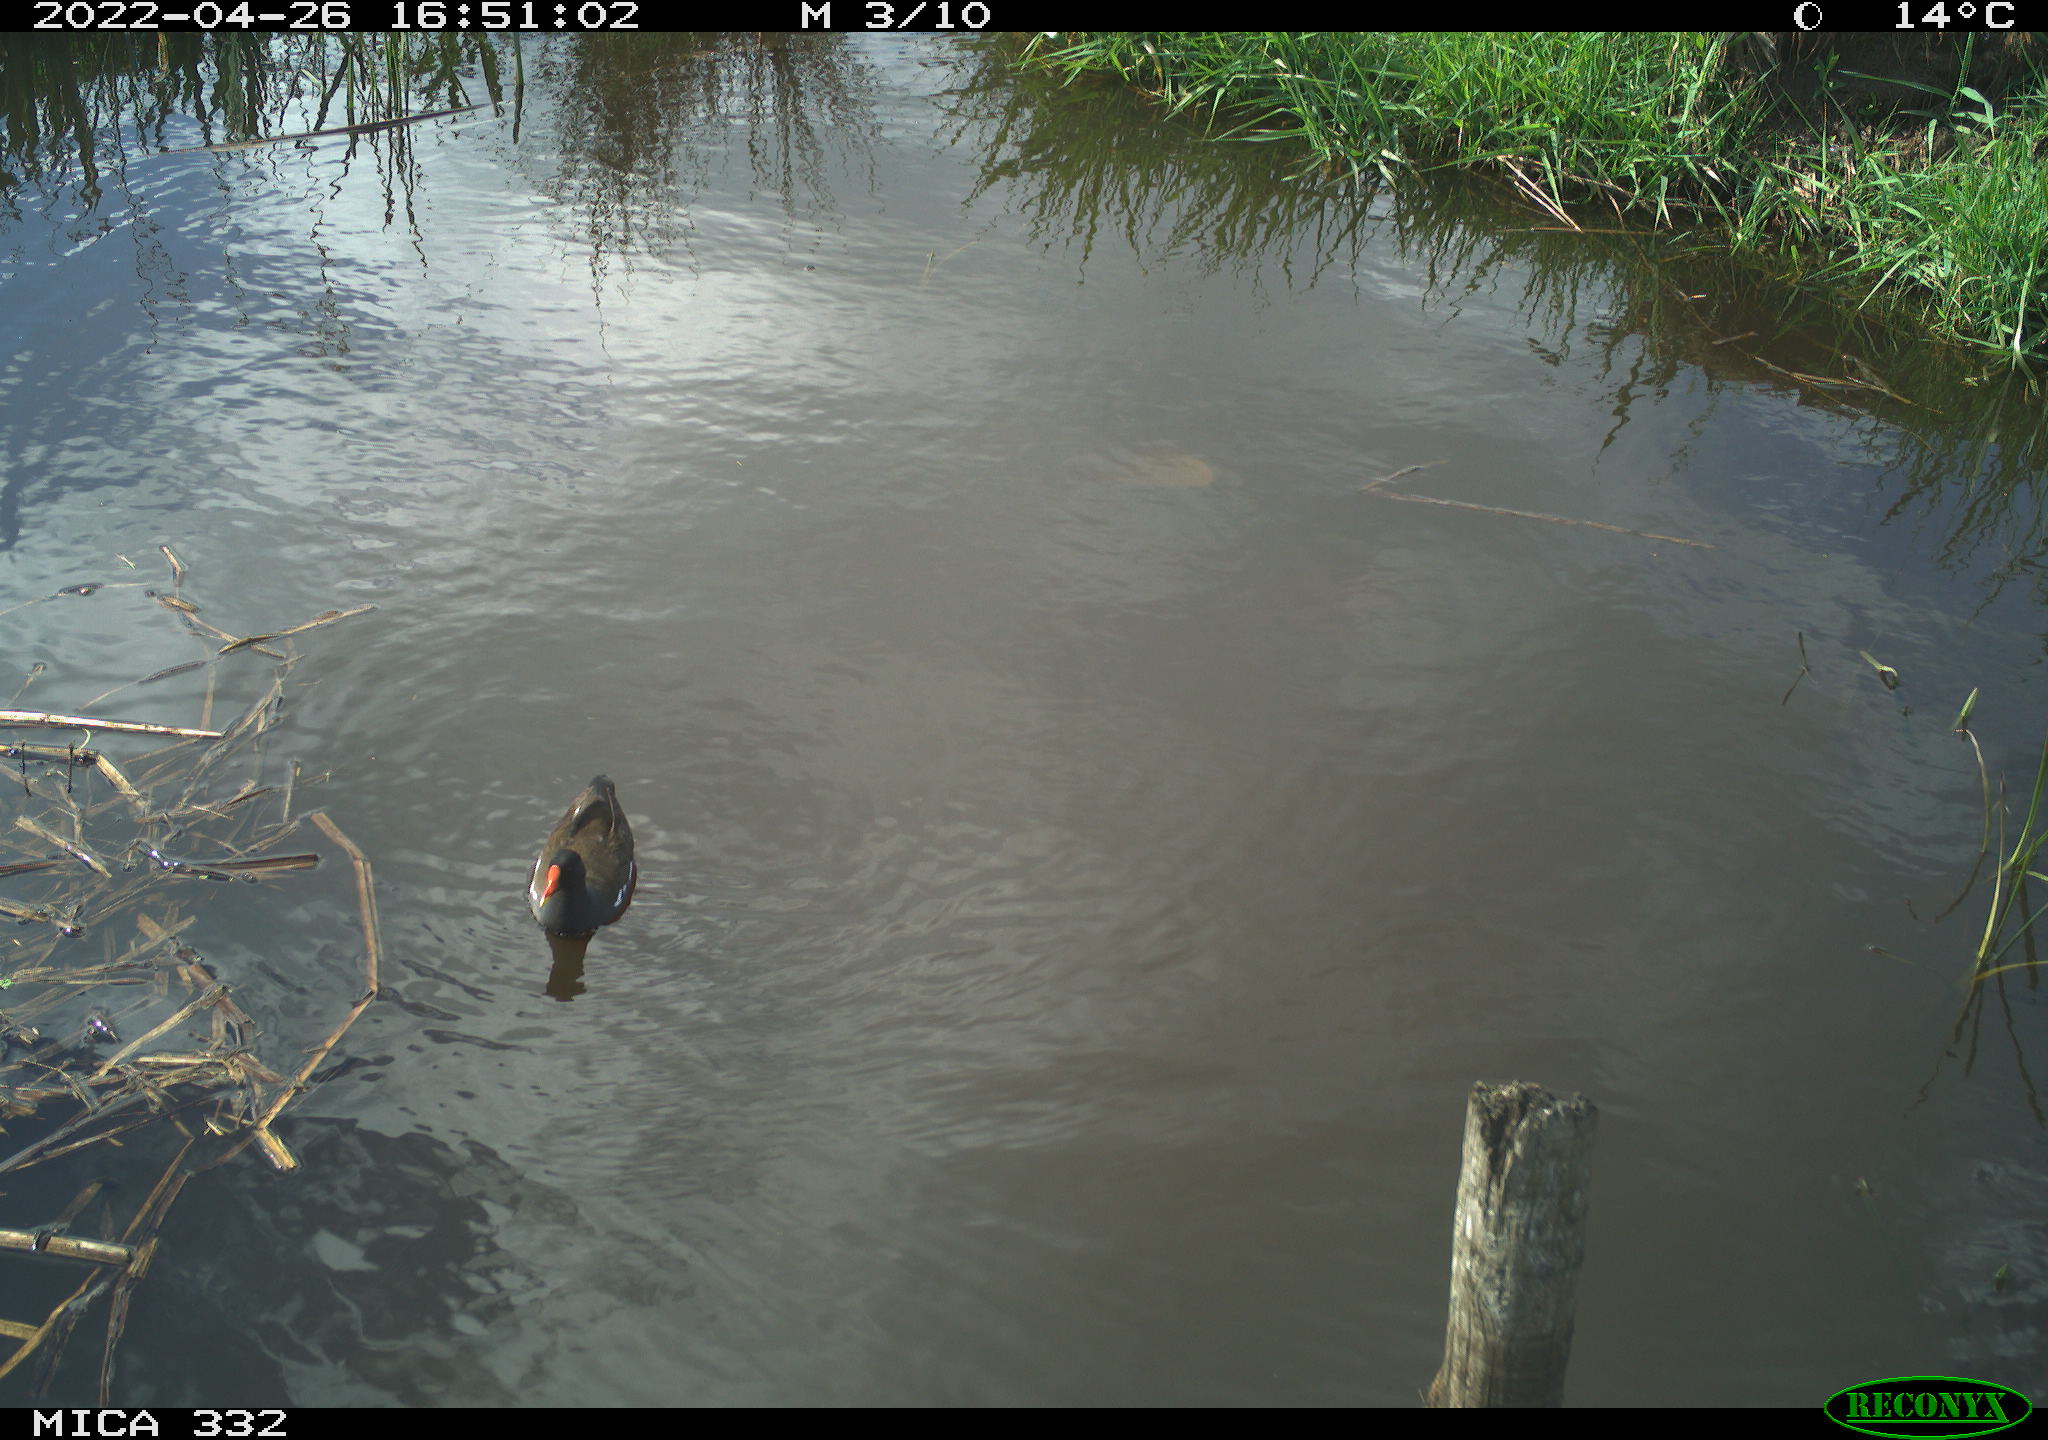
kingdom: Animalia
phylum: Chordata
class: Aves
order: Gruiformes
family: Rallidae
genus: Gallinula
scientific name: Gallinula chloropus
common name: Common moorhen
